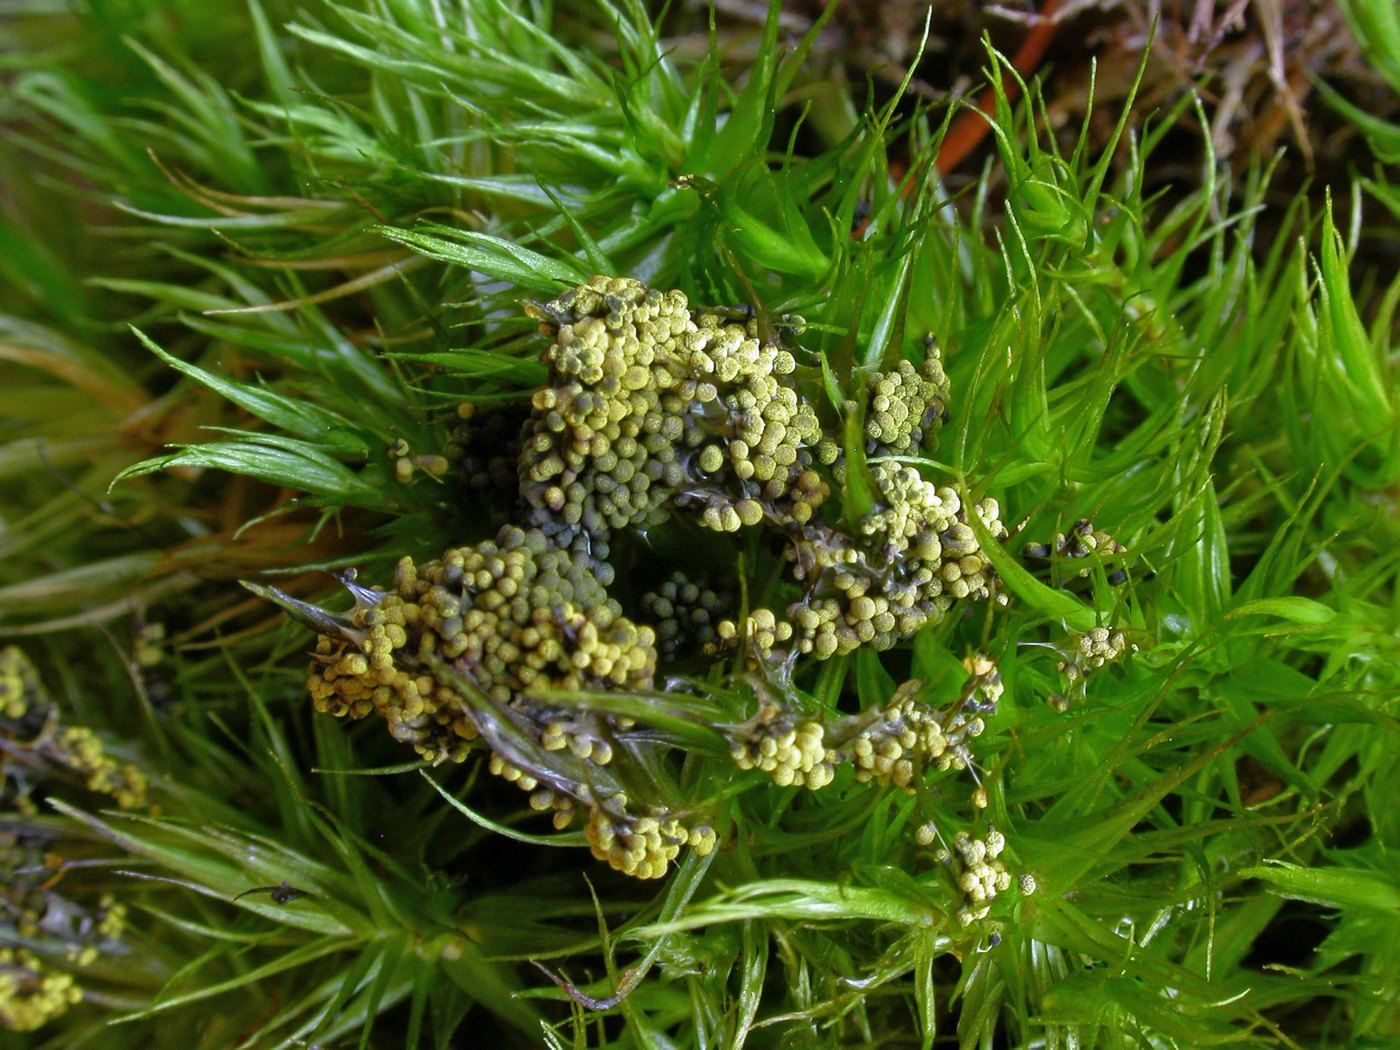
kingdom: Protozoa
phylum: Mycetozoa
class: Myxomycetes
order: Physarales
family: Physaraceae
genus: Physarum
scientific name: Physarum virescens
